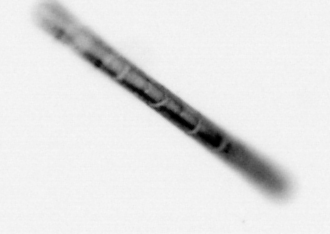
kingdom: Chromista
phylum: Ochrophyta
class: Bacillariophyceae
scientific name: Bacillariophyceae
